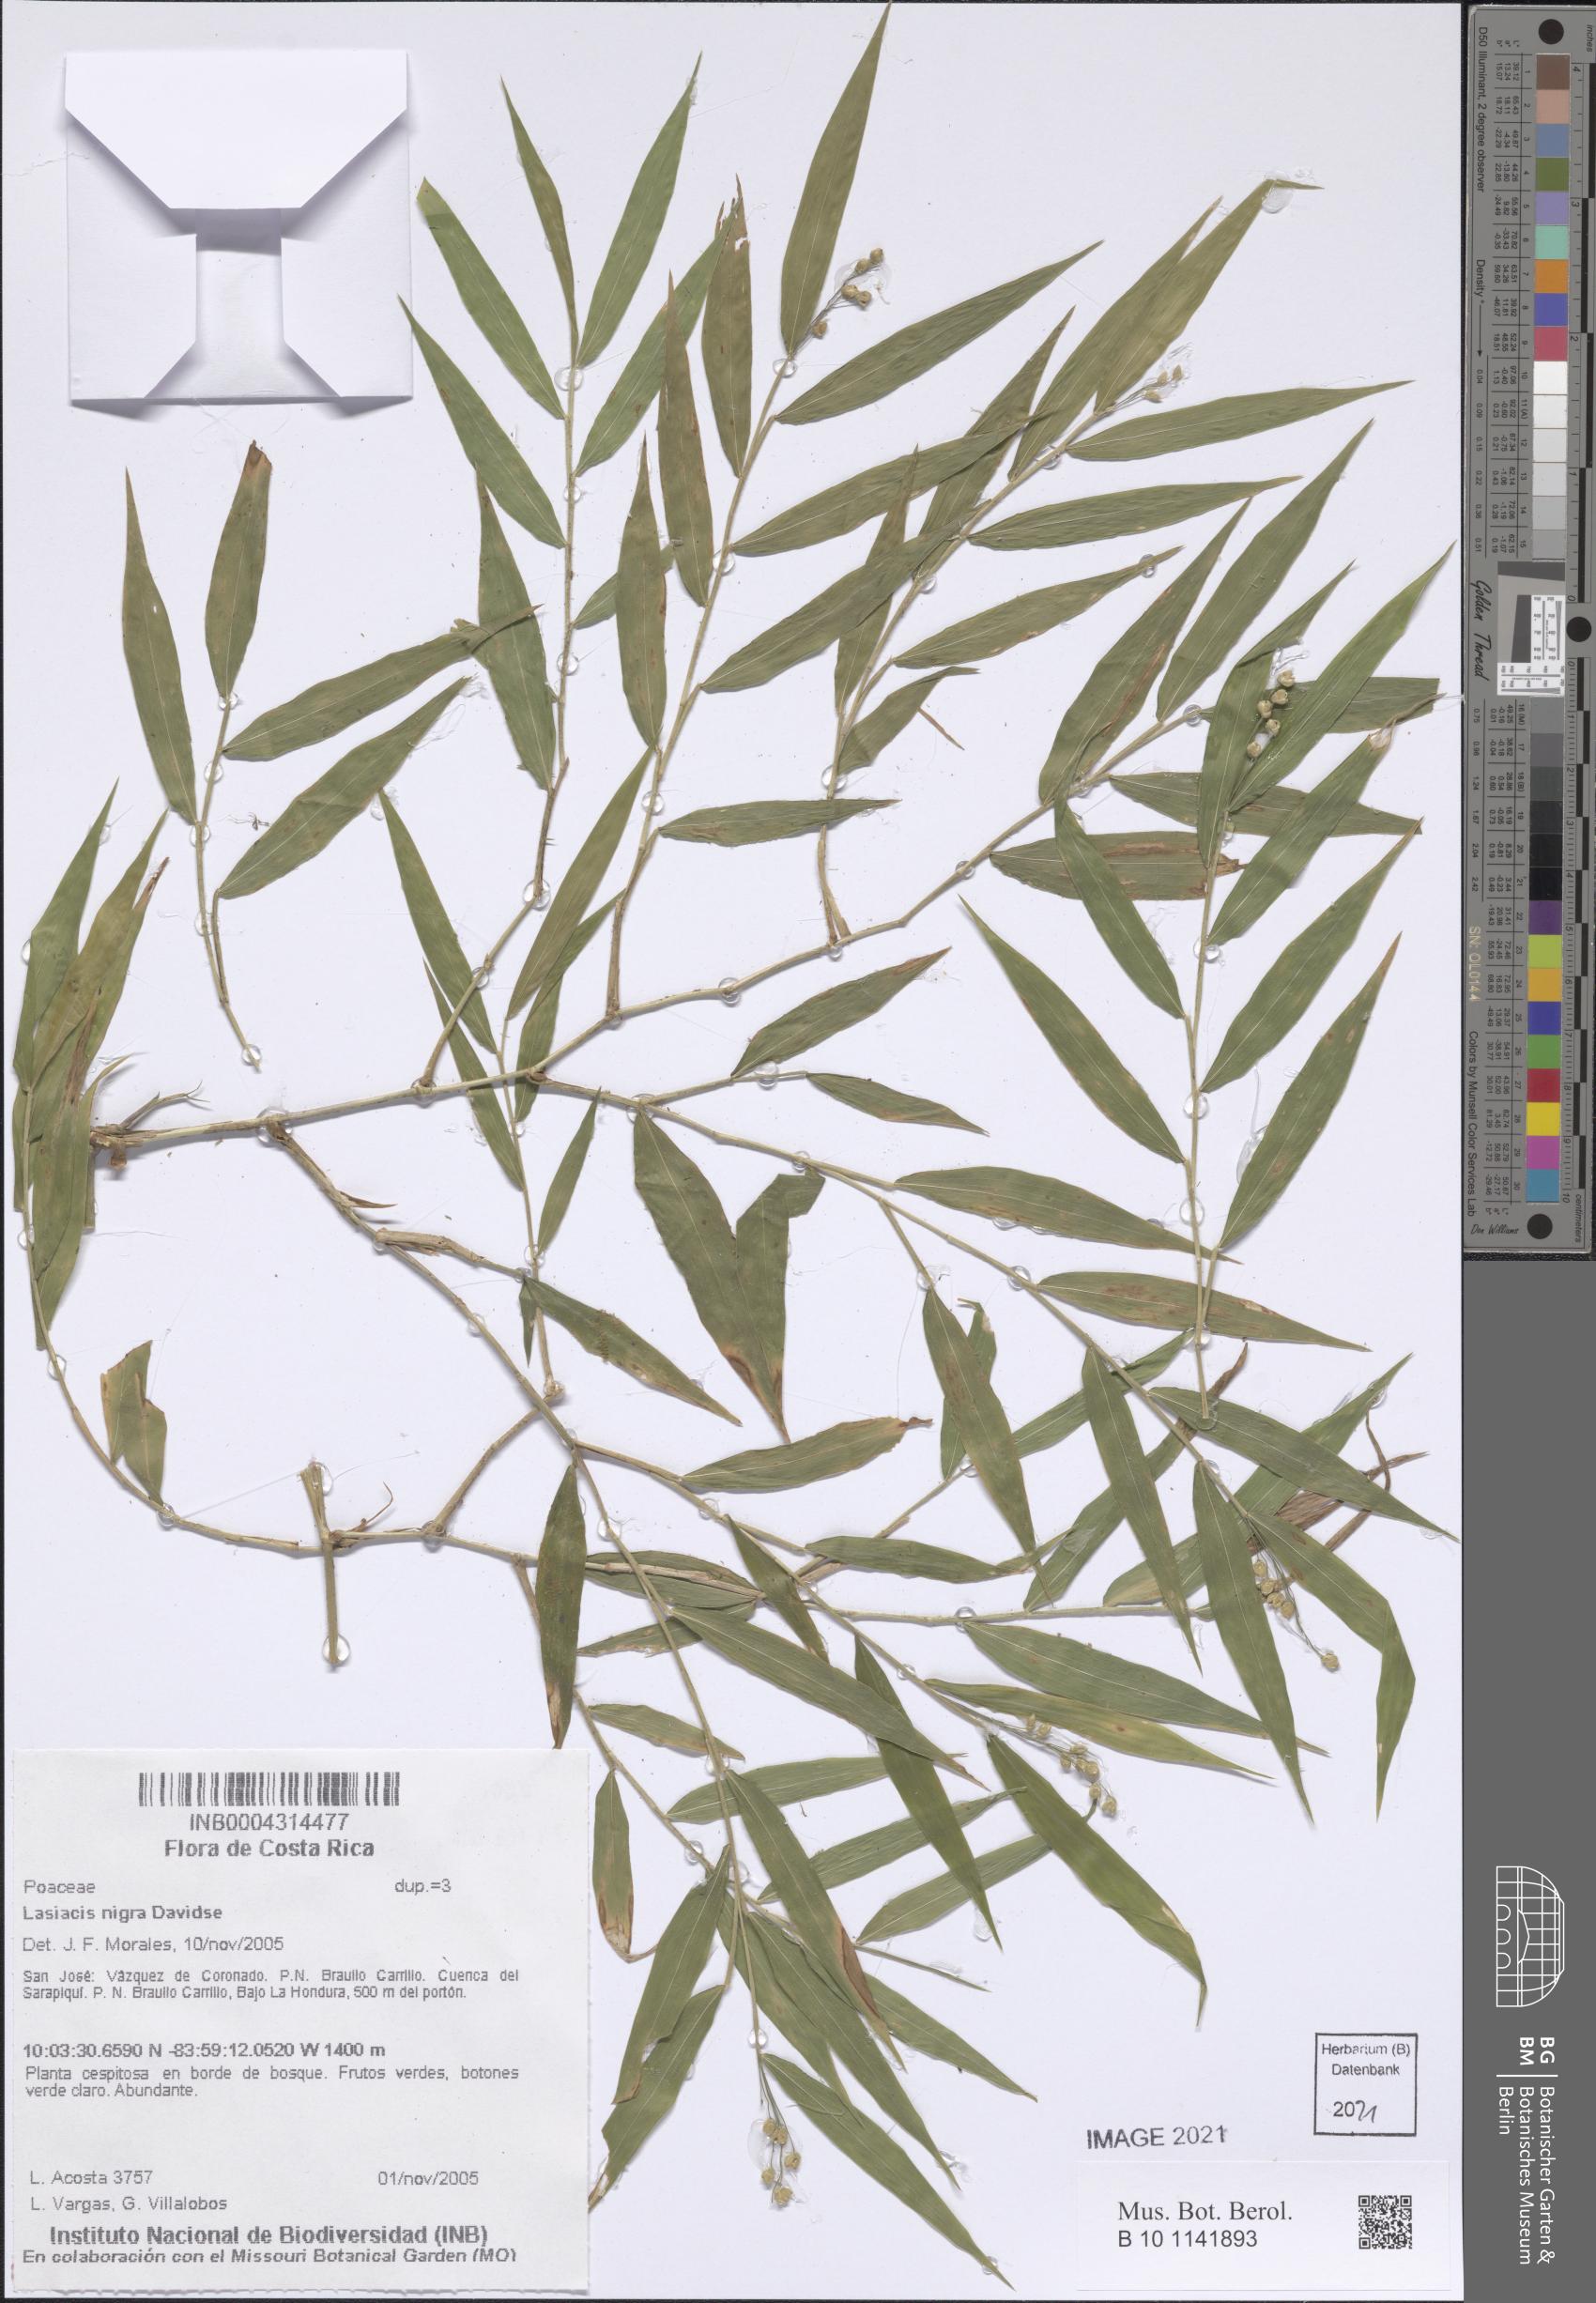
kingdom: Plantae
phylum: Tracheophyta
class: Liliopsida
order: Poales
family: Poaceae
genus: Lasiacis
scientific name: Lasiacis nigra
